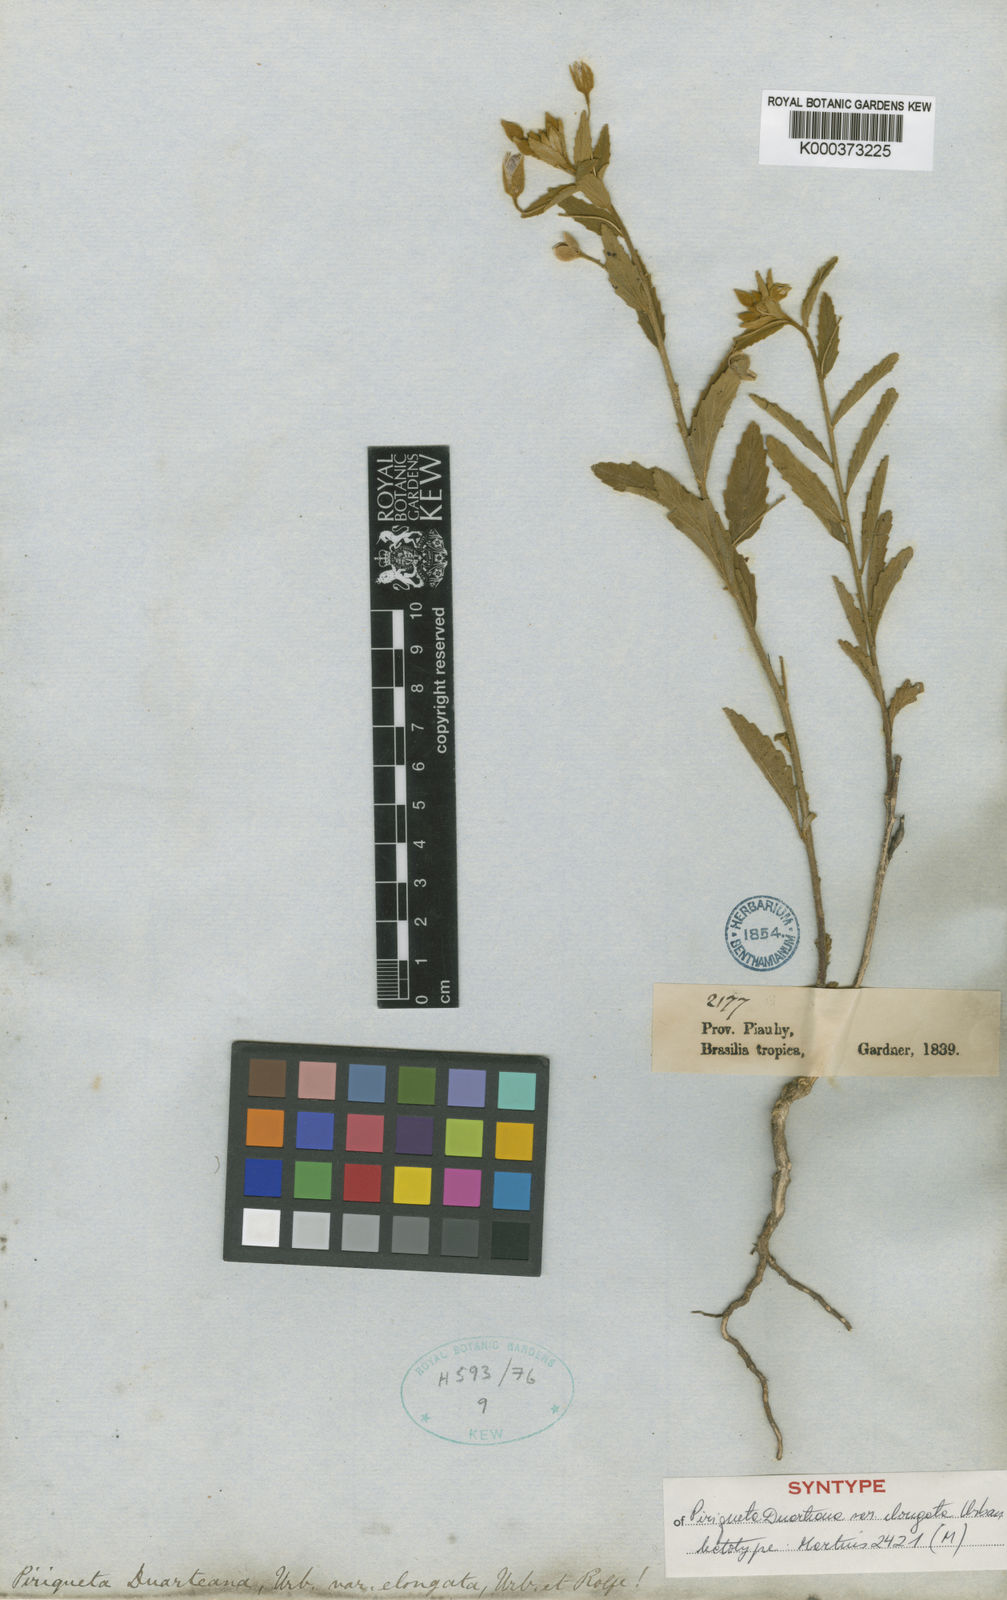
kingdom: Plantae
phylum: Tracheophyta
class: Magnoliopsida
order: Malpighiales
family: Turneraceae
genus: Piriqueta
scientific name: Piriqueta guianensis
